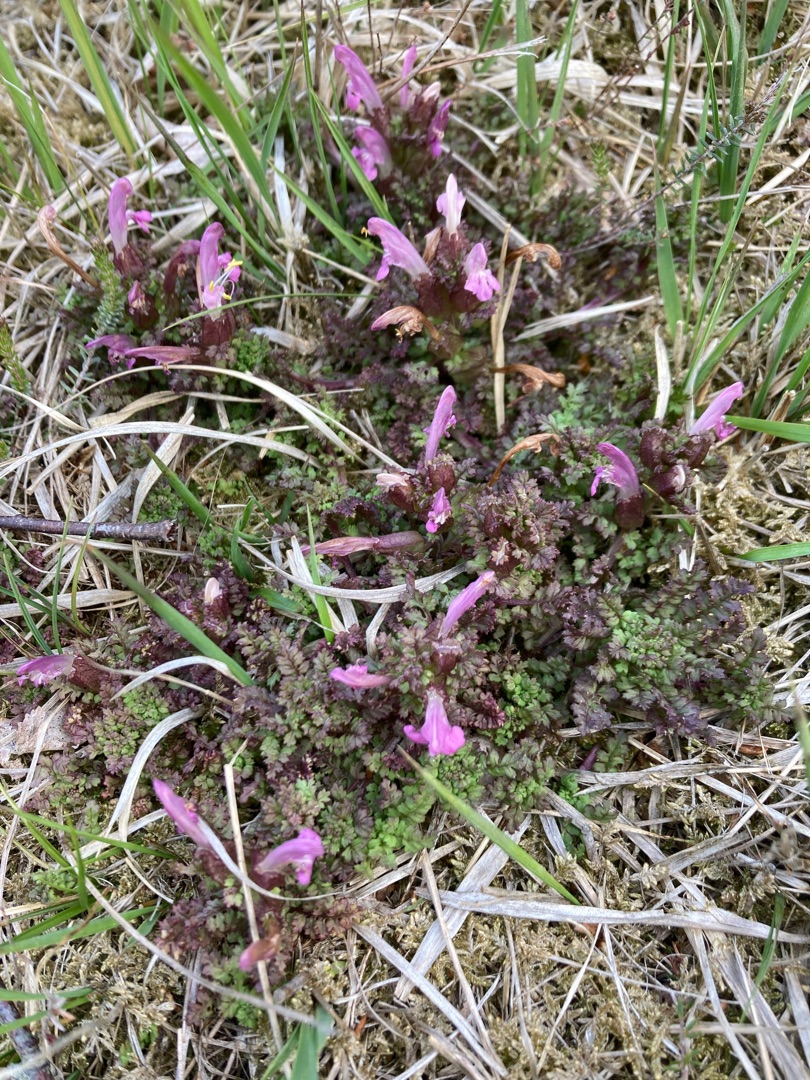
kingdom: Plantae
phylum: Tracheophyta
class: Magnoliopsida
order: Lamiales
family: Orobanchaceae
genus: Pedicularis
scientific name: Pedicularis sylvatica
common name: Mose-troldurt
